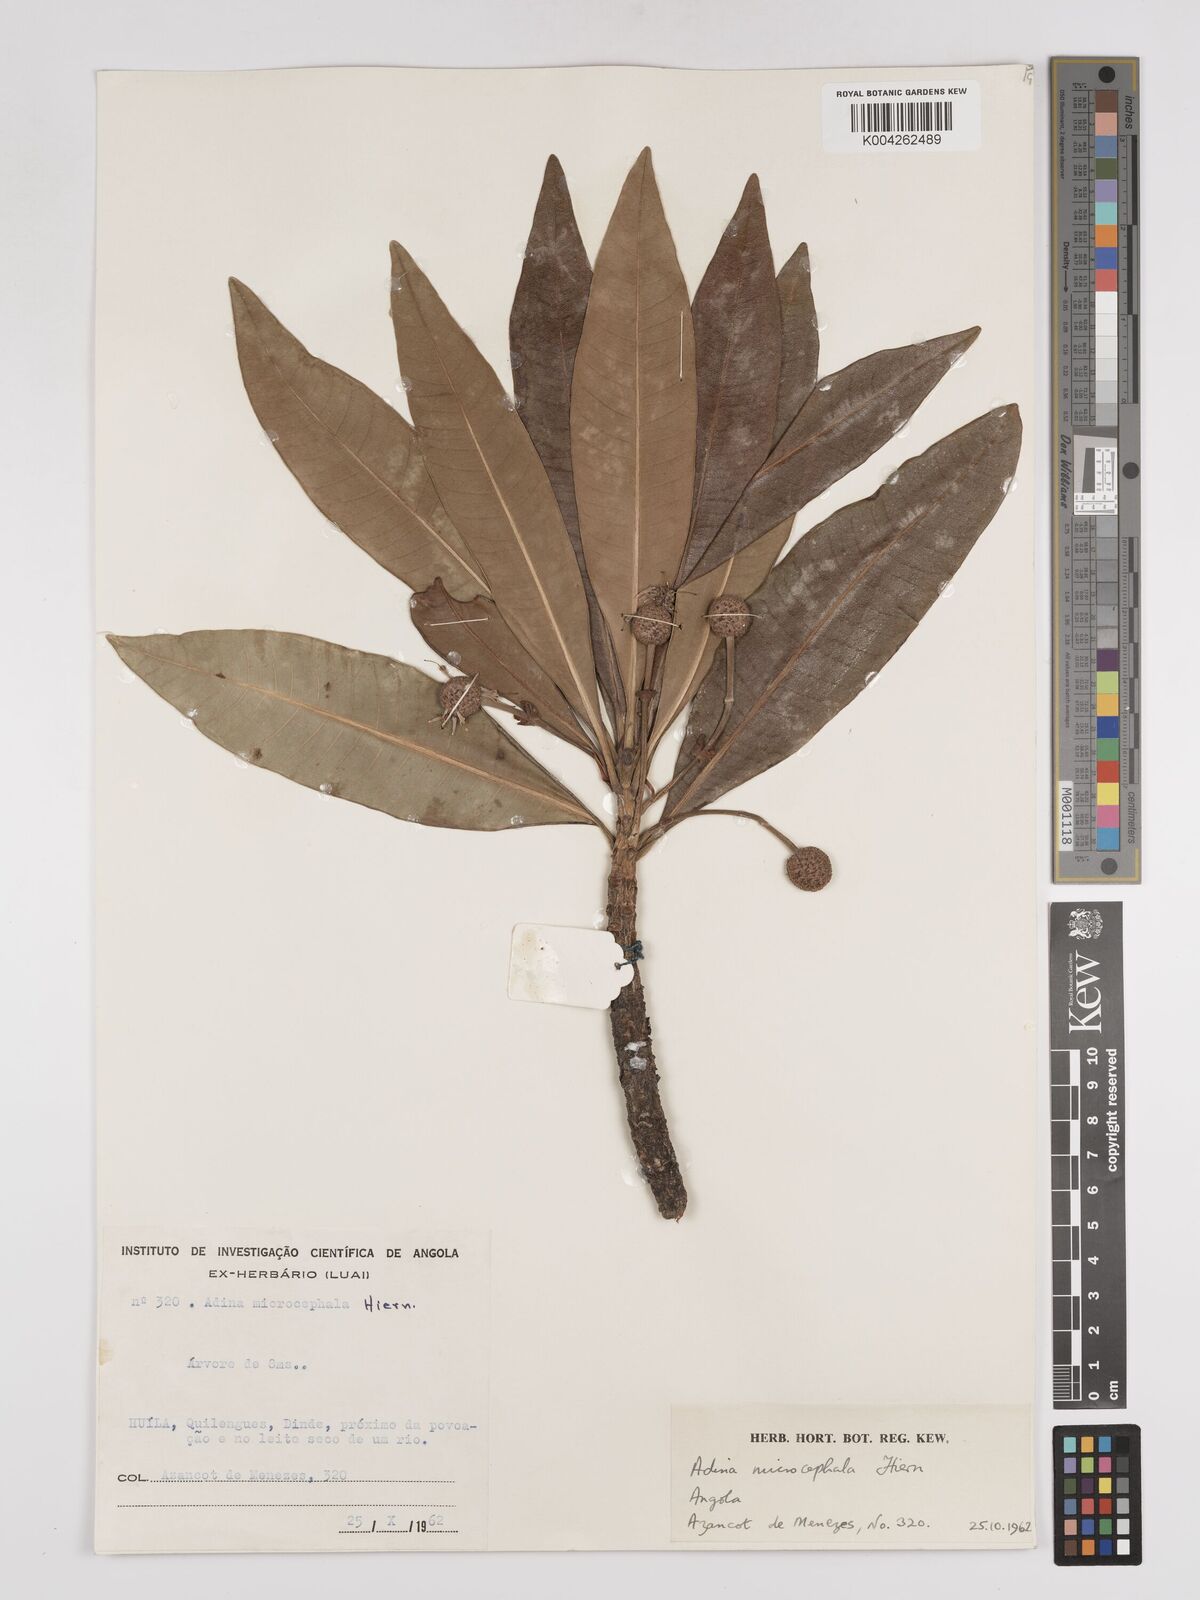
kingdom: Plantae
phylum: Tracheophyta
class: Magnoliopsida
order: Gentianales
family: Rubiaceae
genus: Breonadia
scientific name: Breonadia salicina
